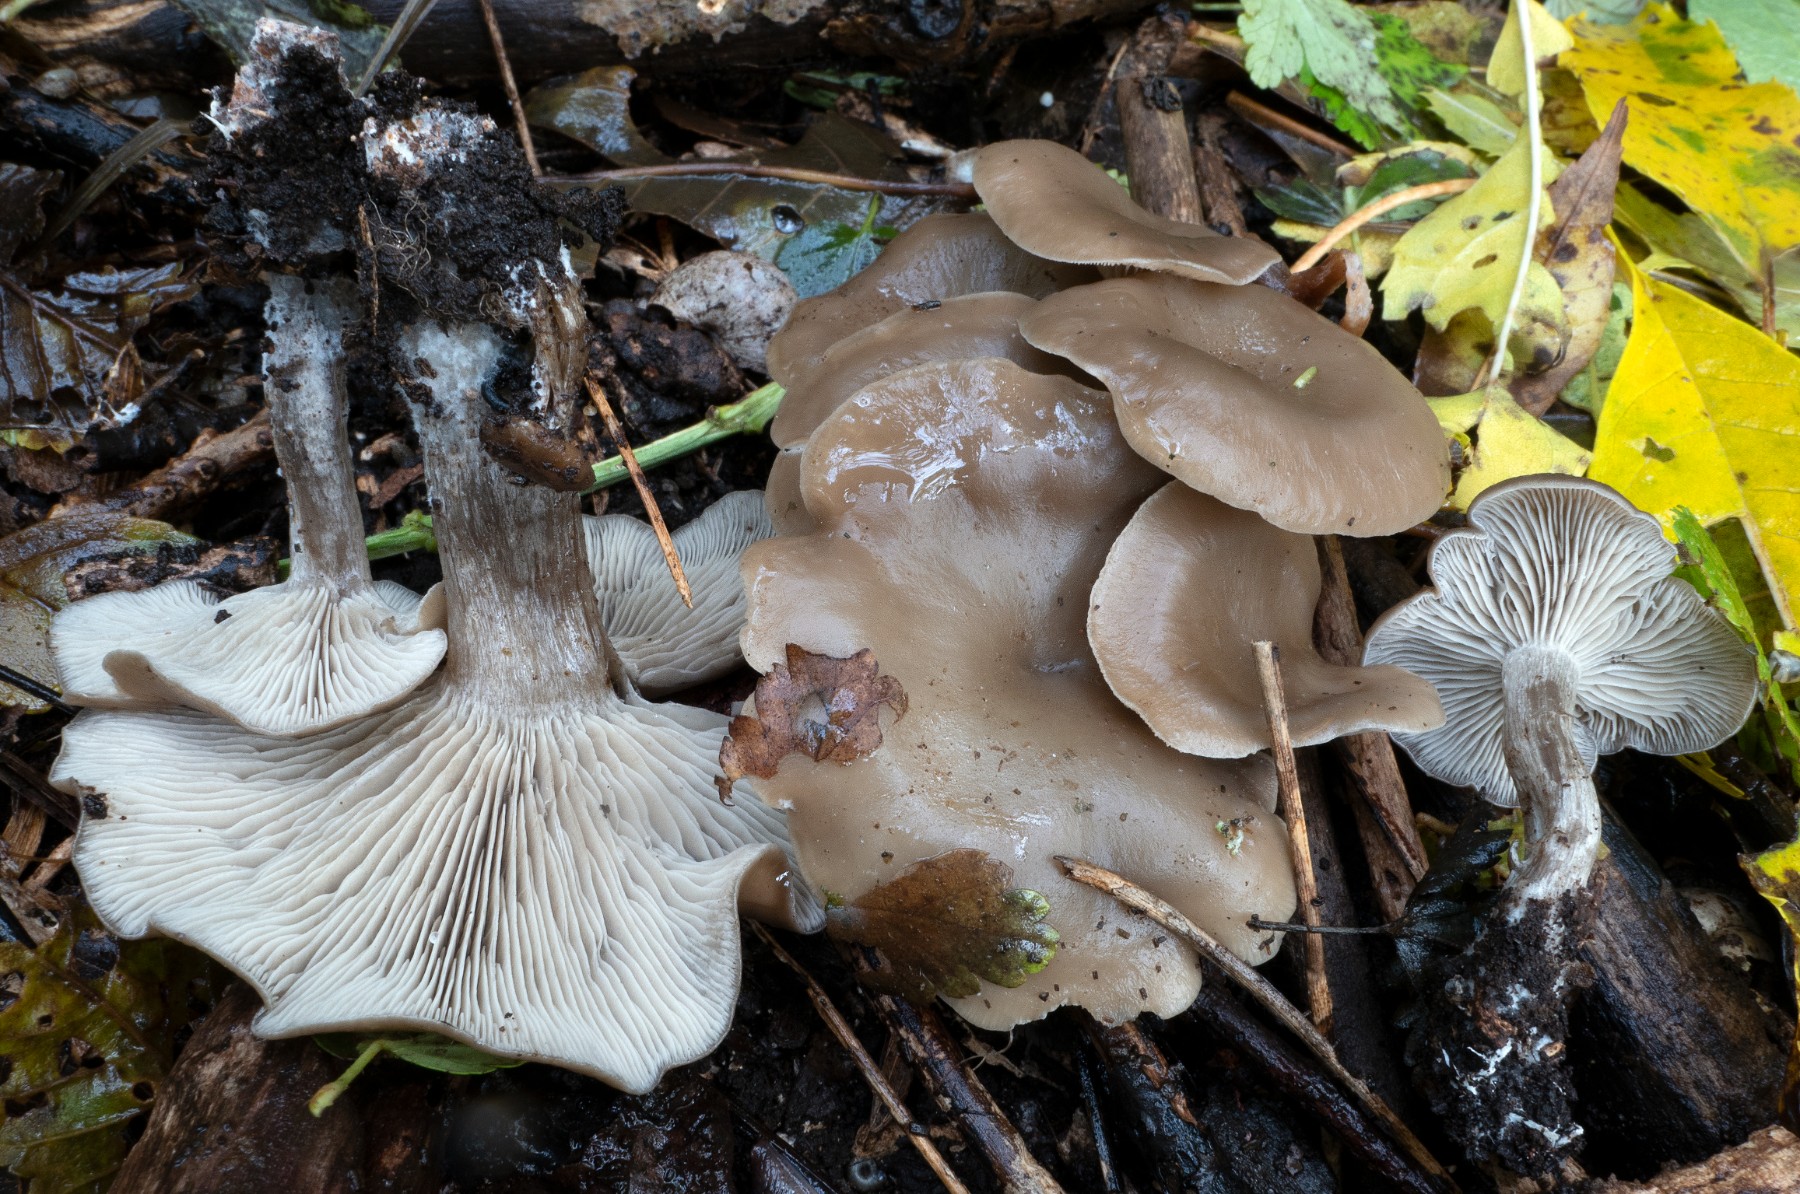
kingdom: Fungi
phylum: Basidiomycota
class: Agaricomycetes
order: Agaricales
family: Tricholomataceae
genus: Clitocybe
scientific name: Clitocybe
